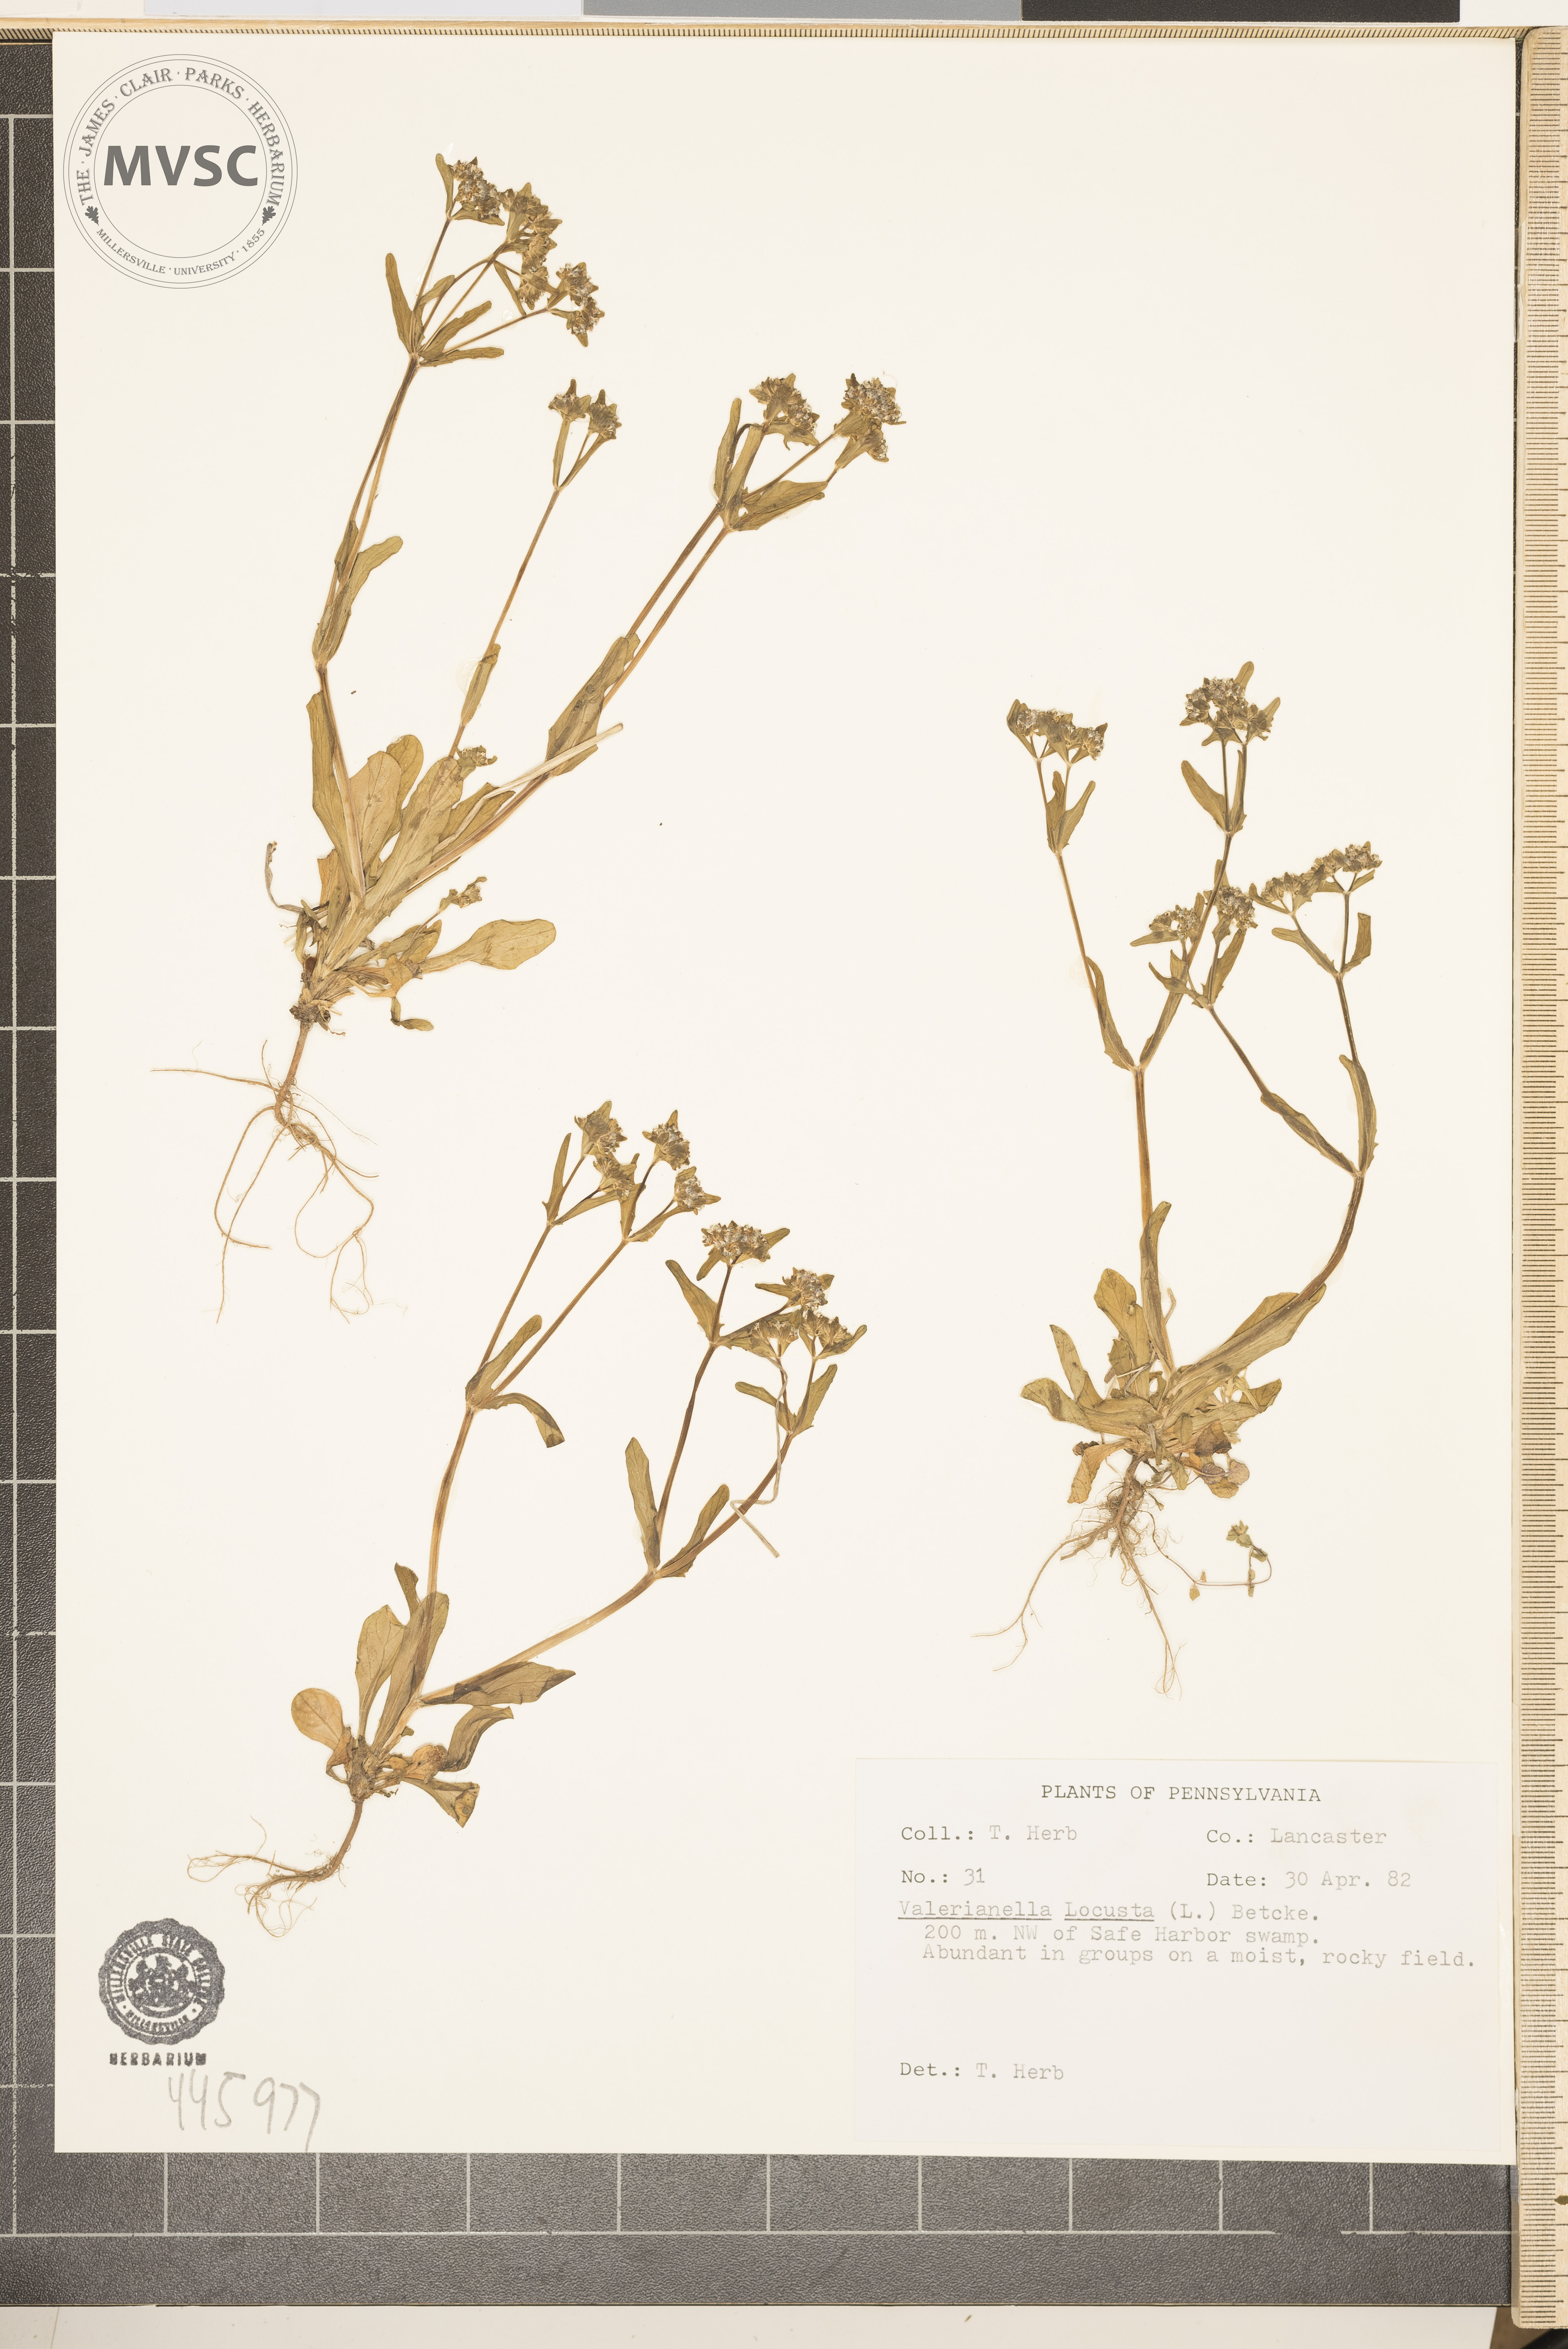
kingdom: Plantae
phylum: Tracheophyta
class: Magnoliopsida
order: Dipsacales
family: Caprifoliaceae
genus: Valerianella
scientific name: Valerianella locusta
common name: Common cornsalad
